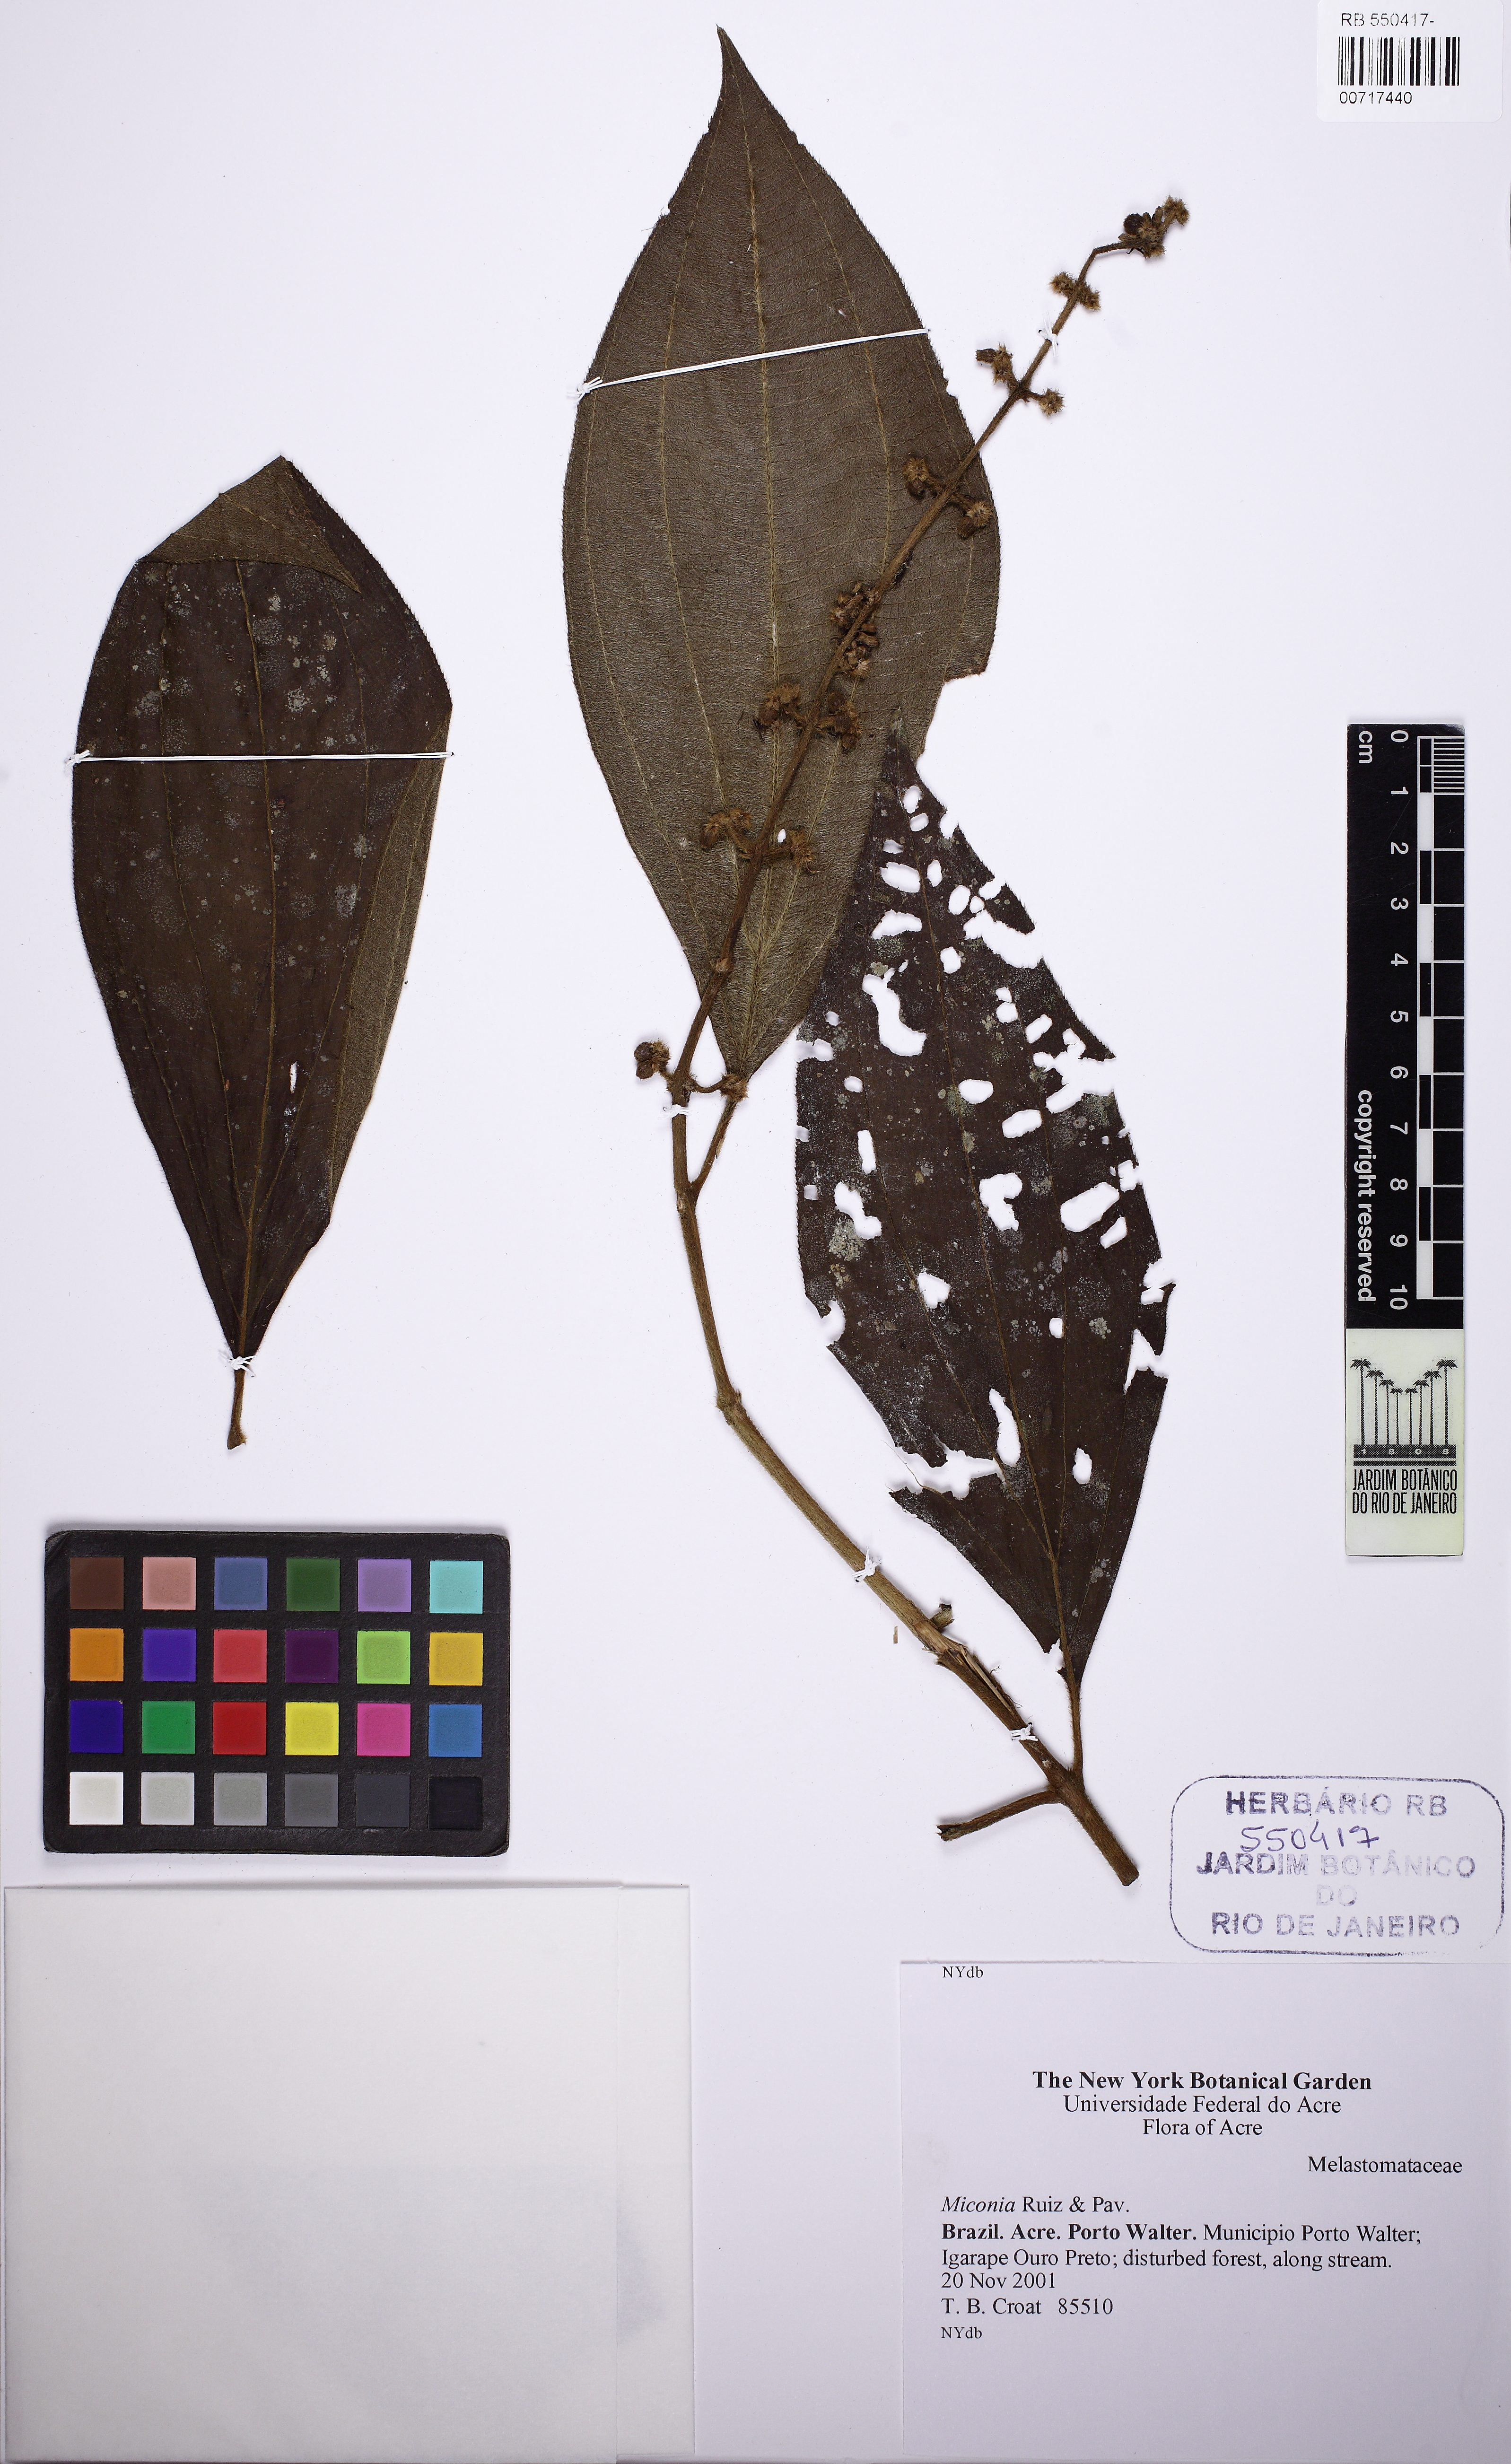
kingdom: Plantae
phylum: Tracheophyta
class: Magnoliopsida
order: Myrtales
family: Melastomataceae
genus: Miconia
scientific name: Miconia nervosa
